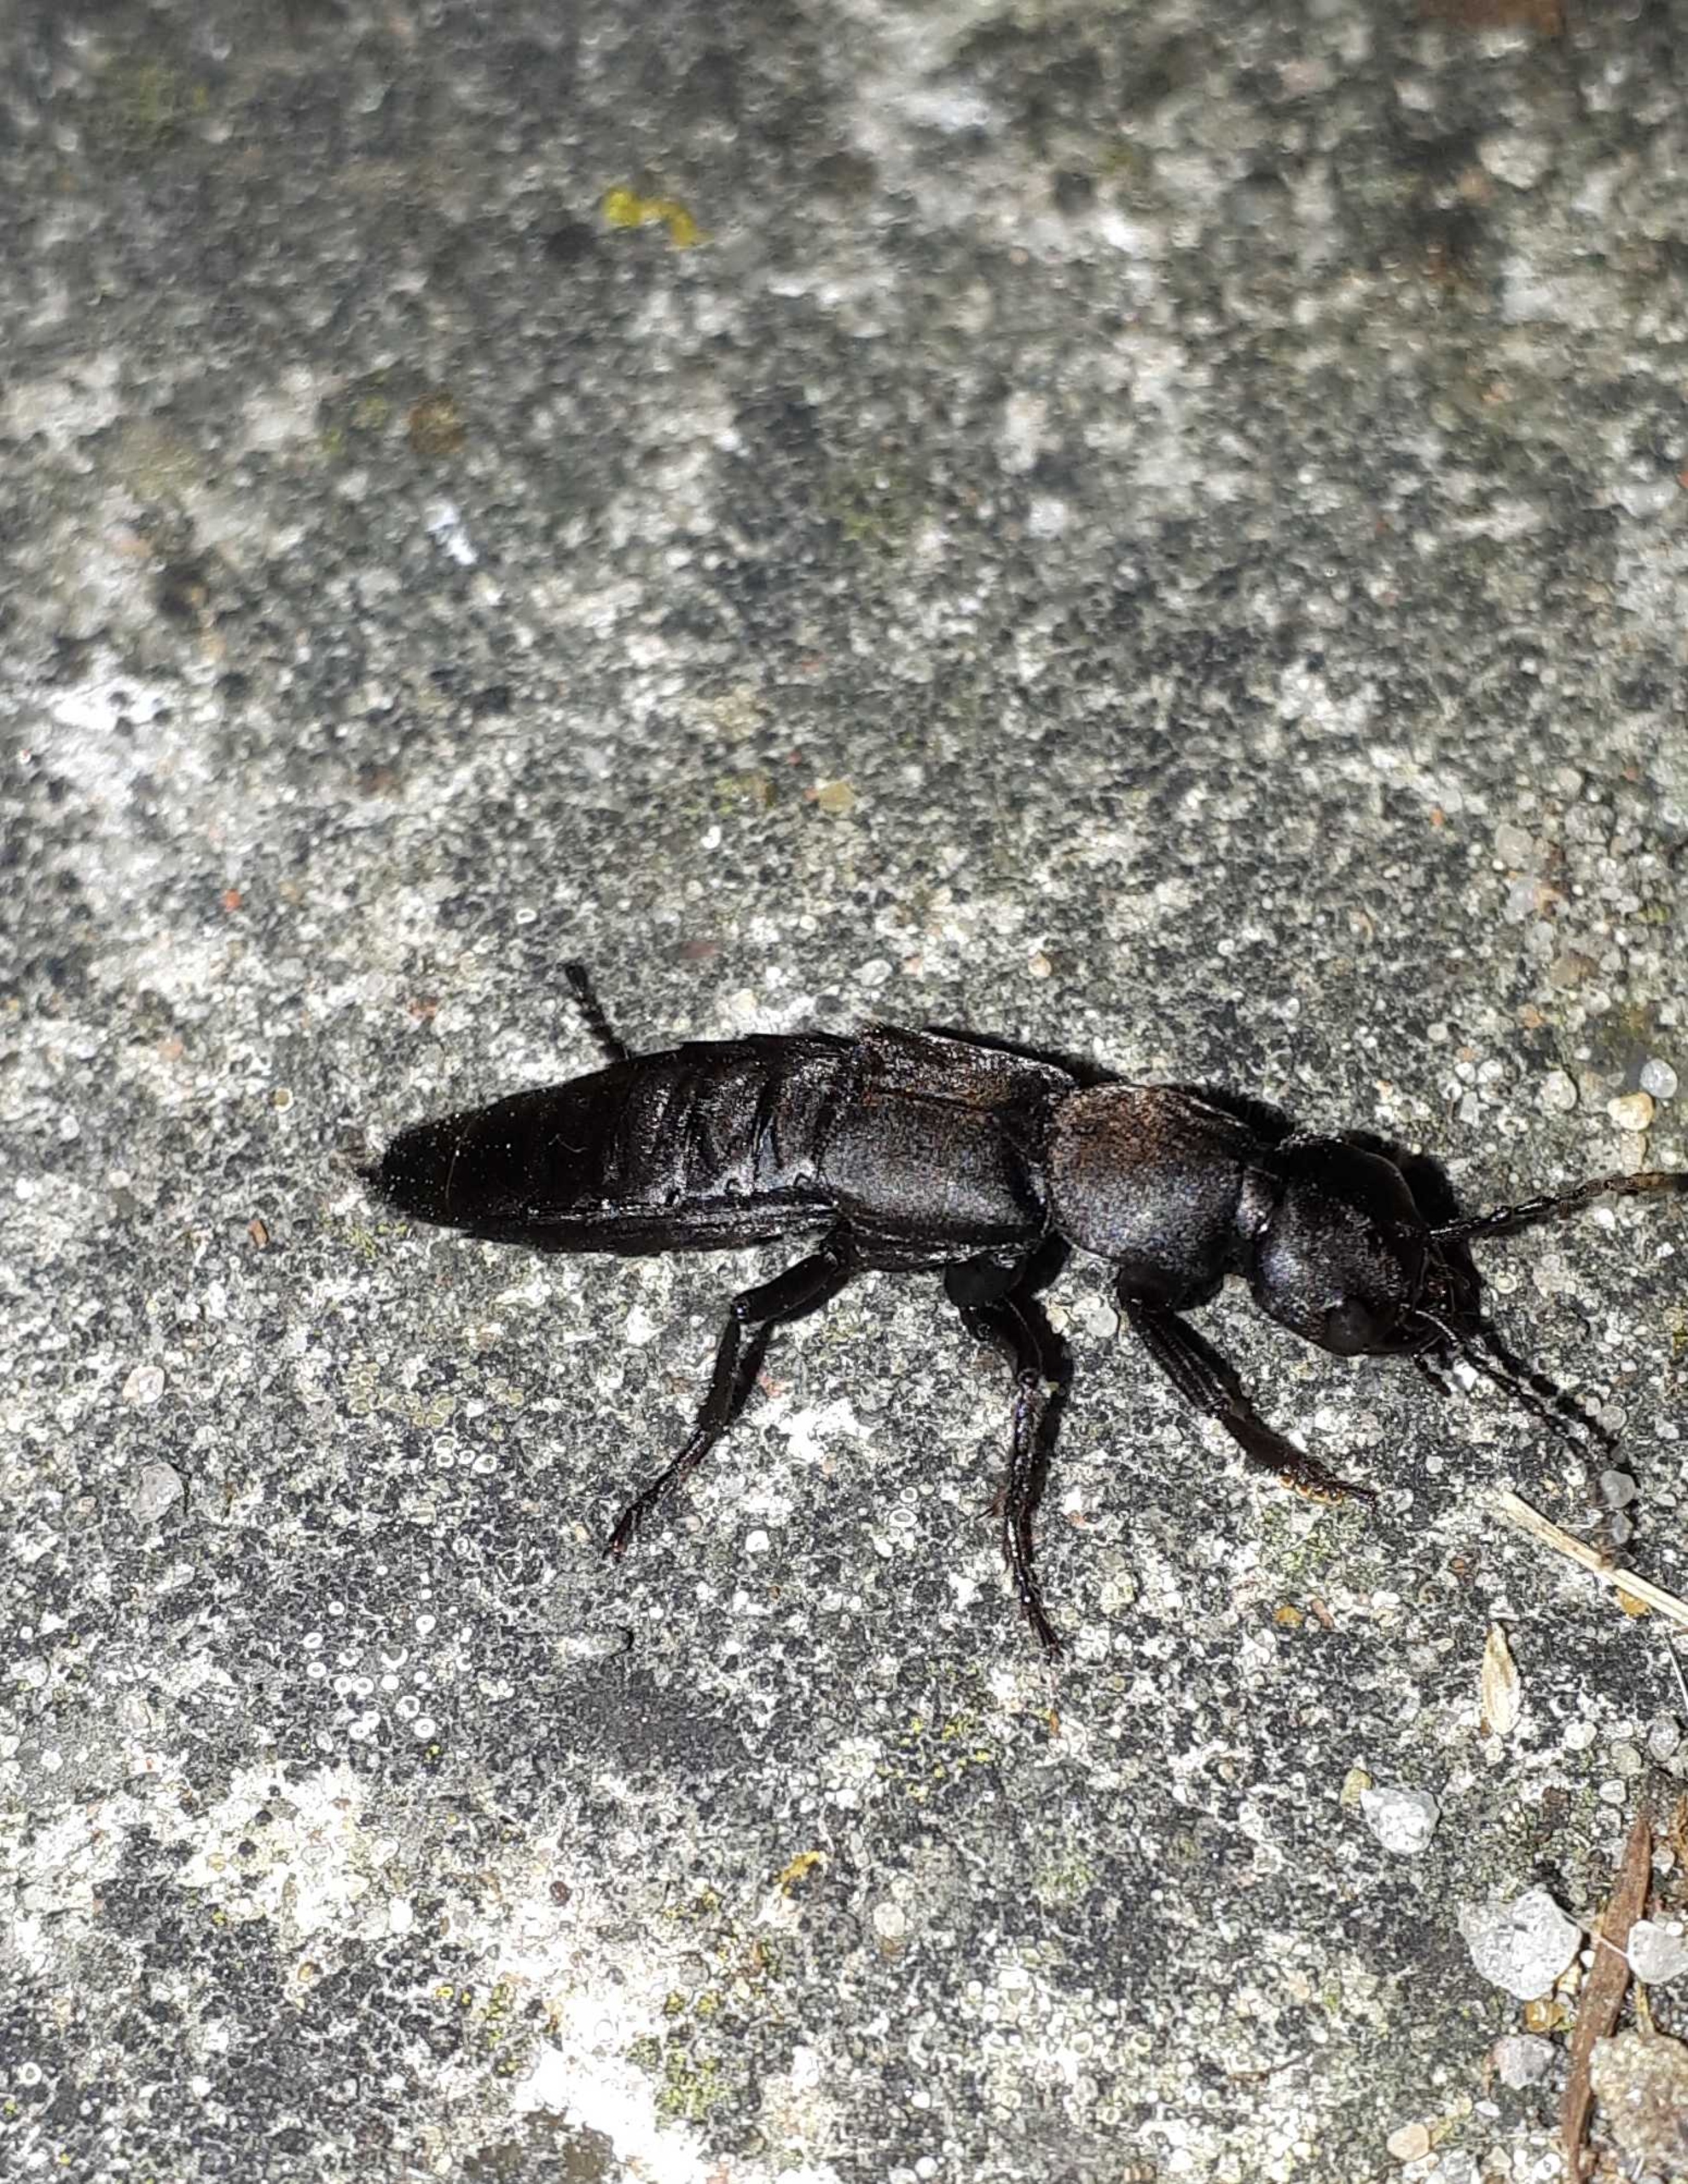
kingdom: Animalia
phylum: Arthropoda
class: Insecta
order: Coleoptera
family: Staphylinidae
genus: Ocypus
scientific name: Ocypus olens
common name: Stor rovbille
